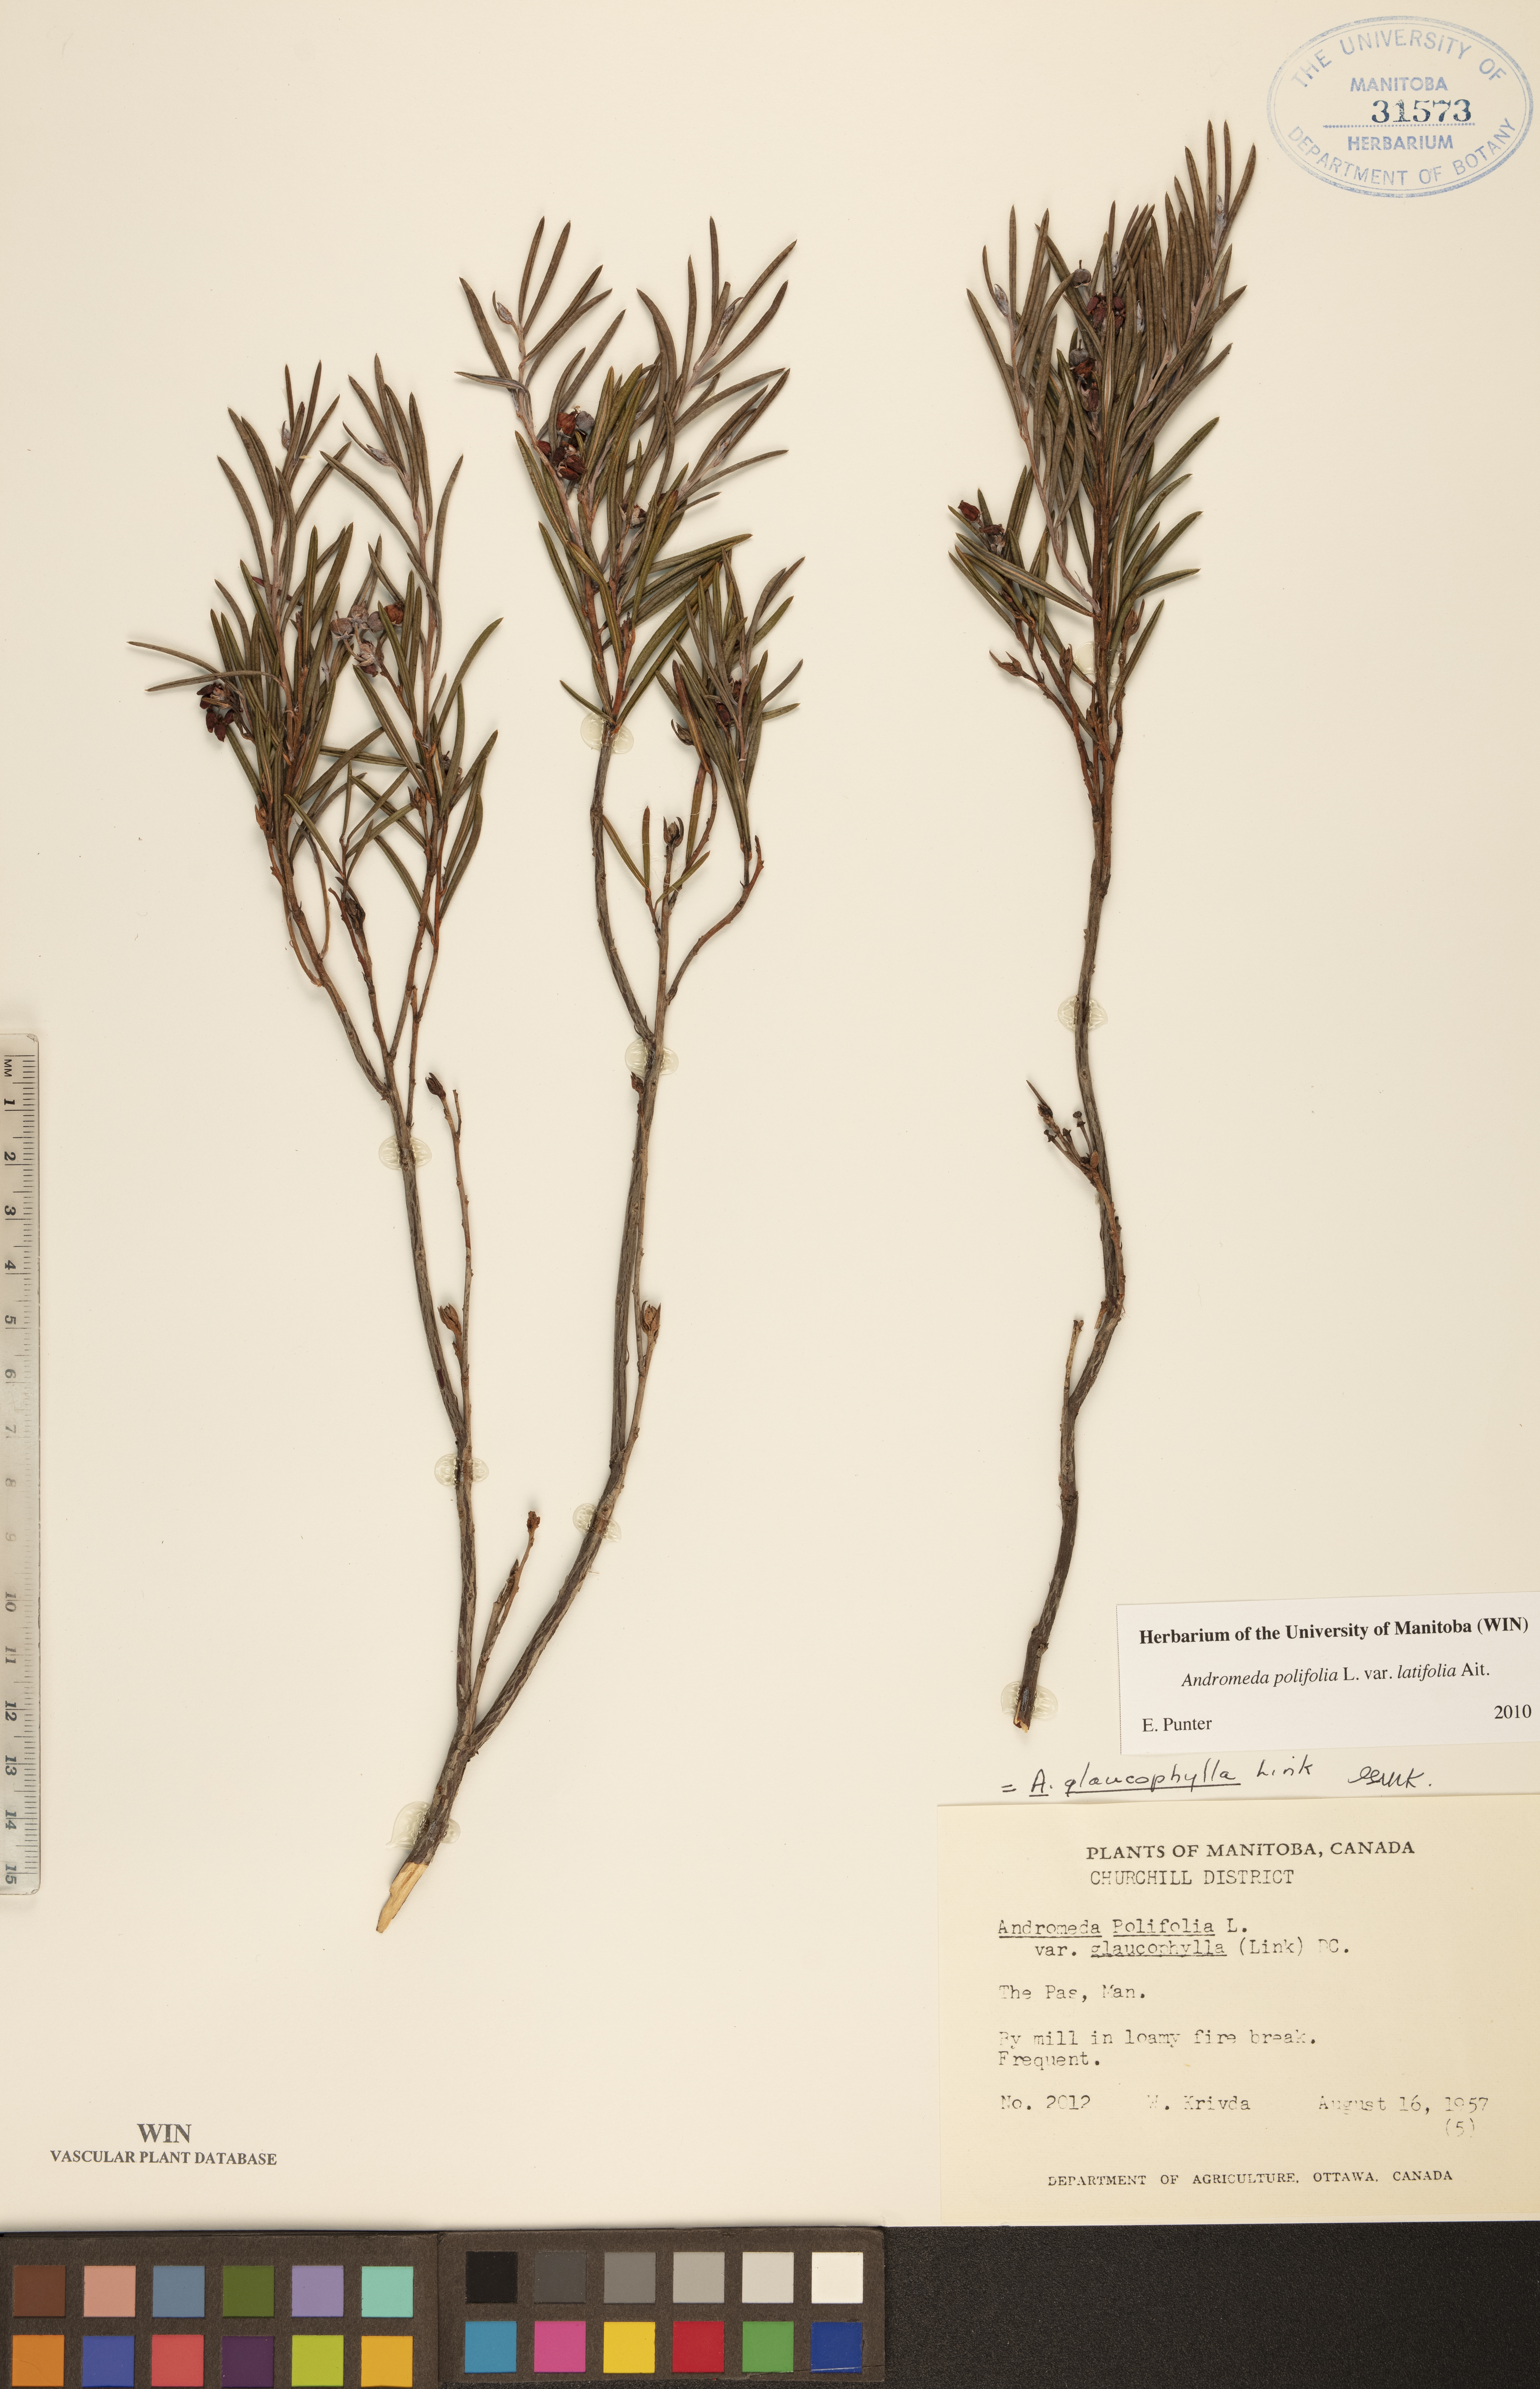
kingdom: Plantae
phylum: Tracheophyta
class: Magnoliopsida
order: Ericales
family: Ericaceae
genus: Andromeda
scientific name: Andromeda polifolia
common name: Bog-rosemary
